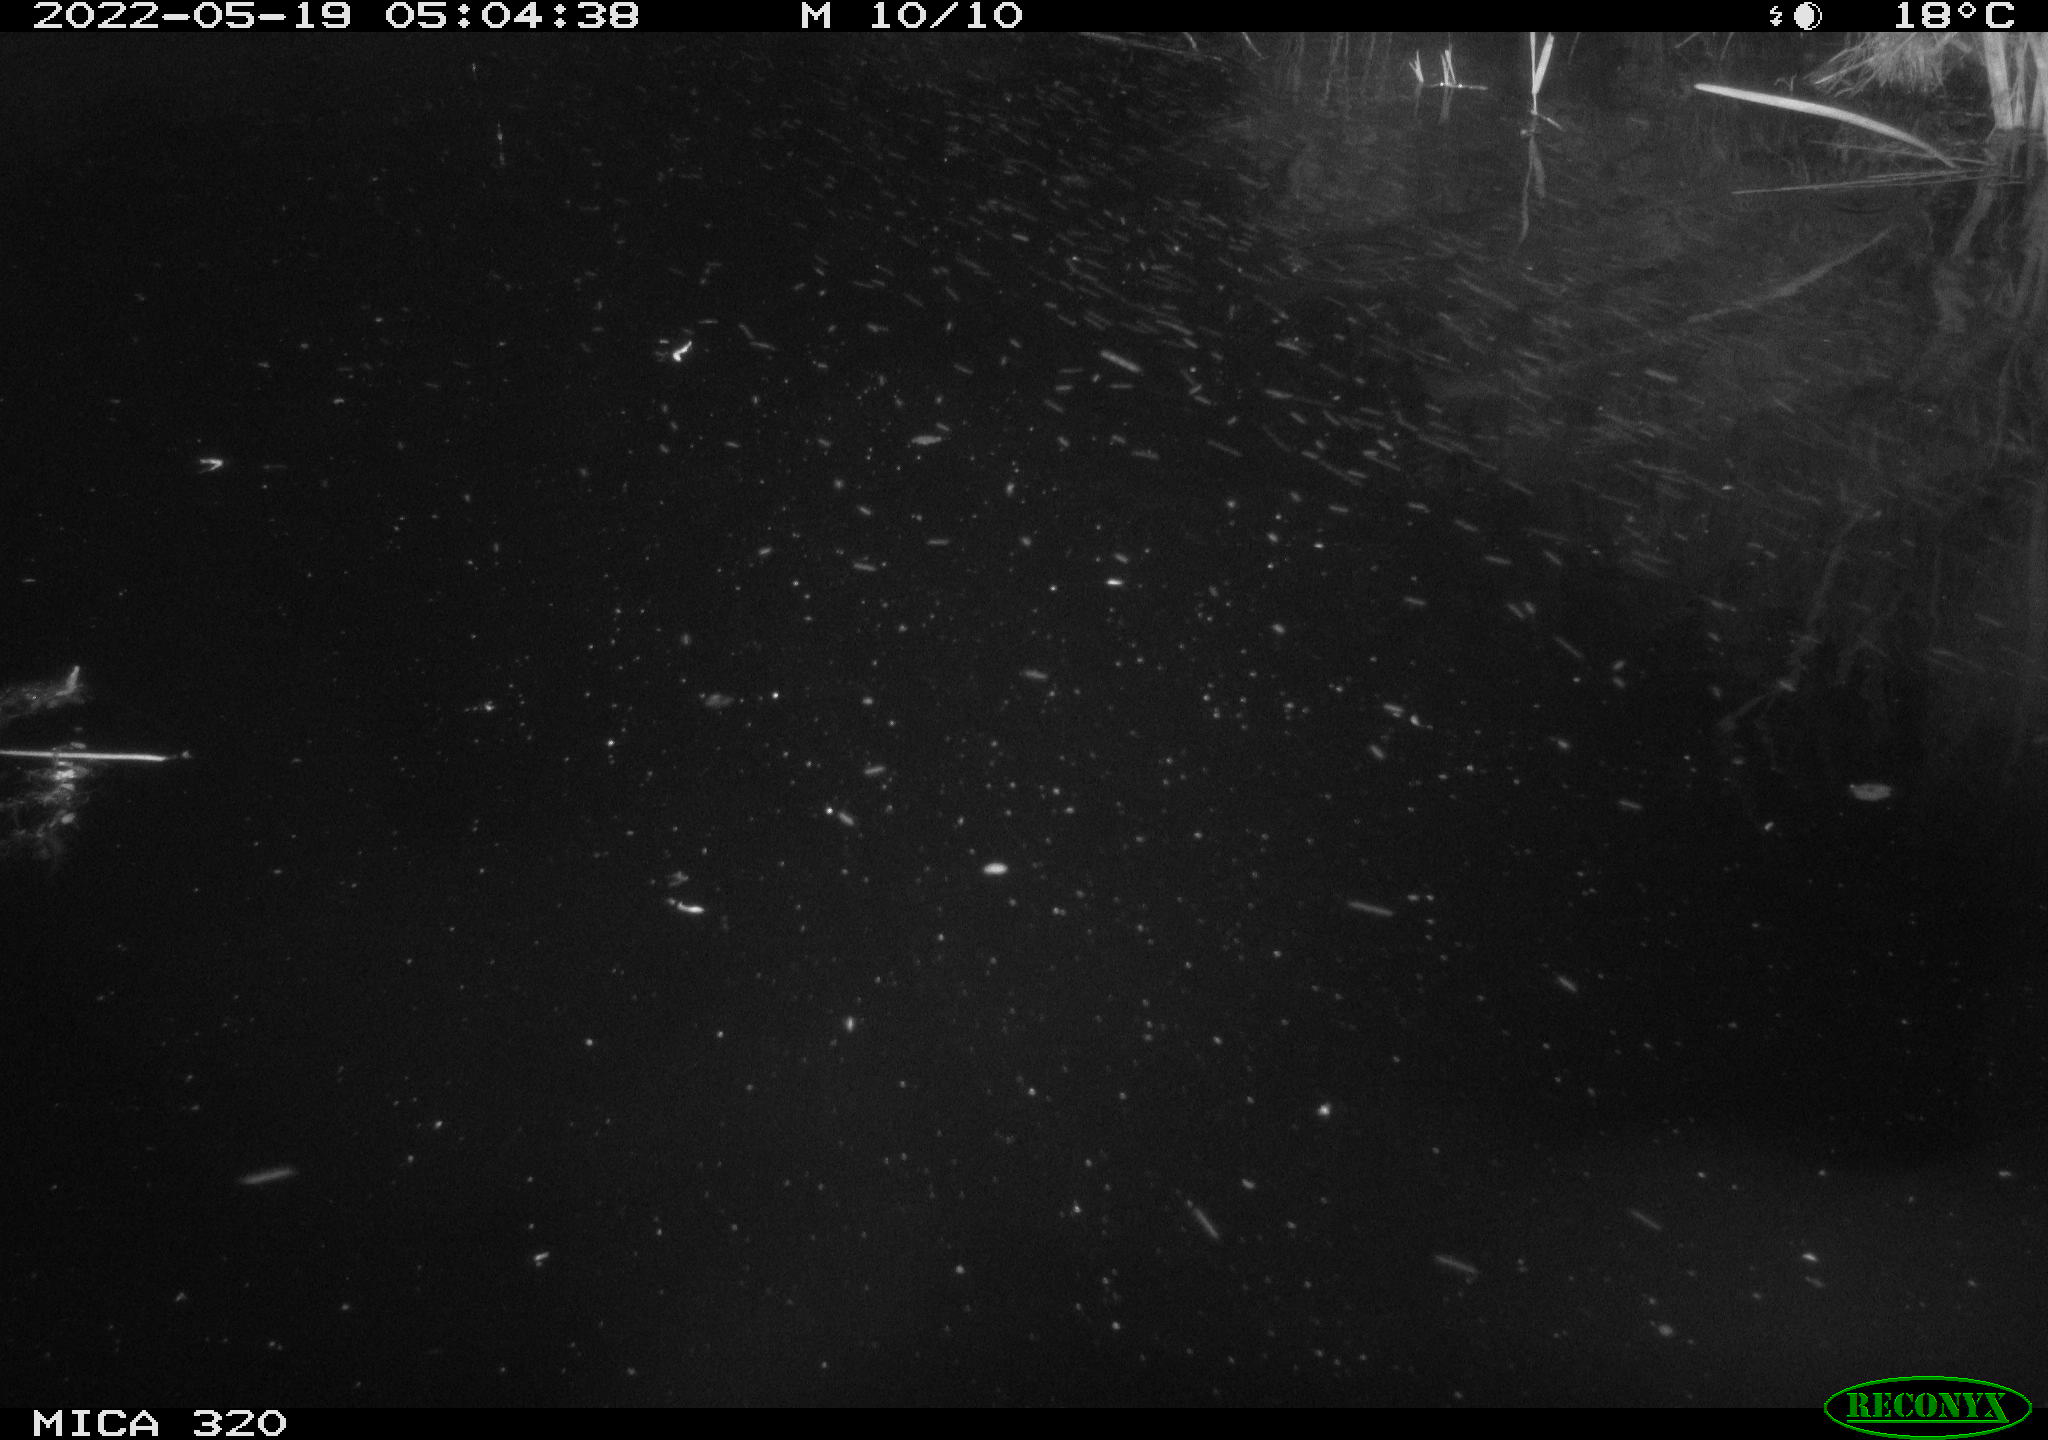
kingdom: Animalia
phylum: Chordata
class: Aves
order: Anseriformes
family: Anatidae
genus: Mareca
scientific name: Mareca strepera
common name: Gadwall
